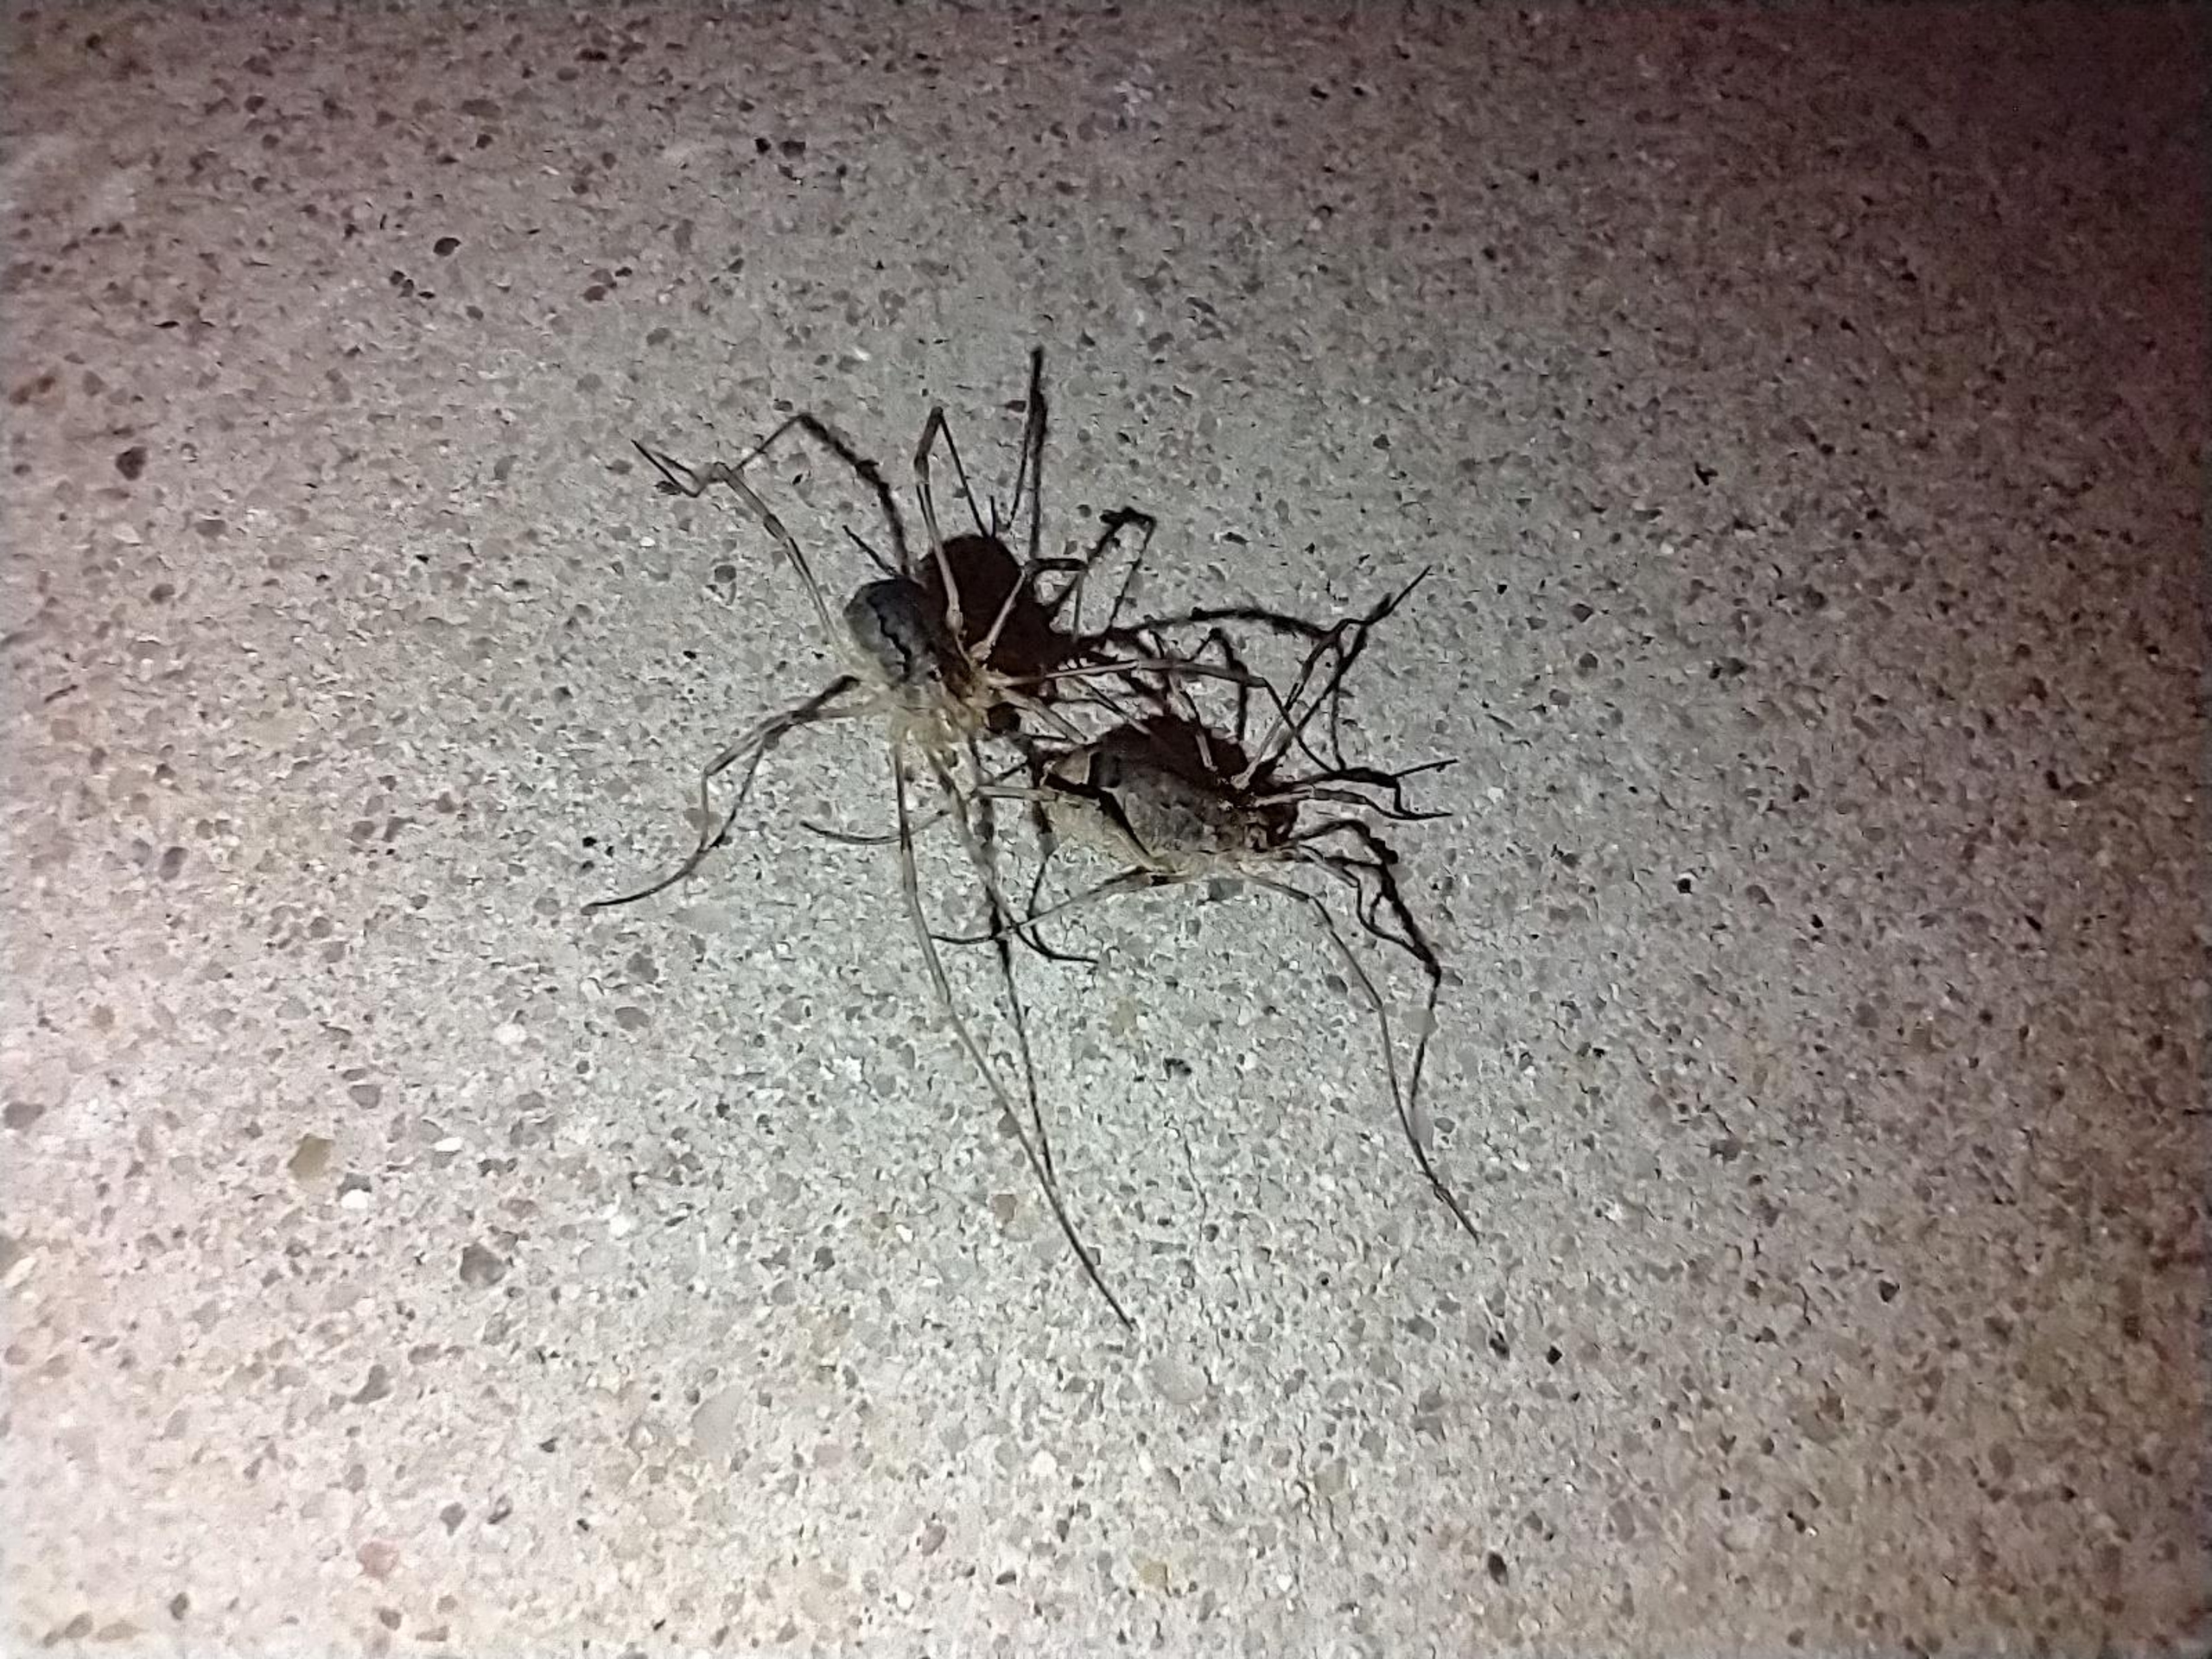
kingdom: Animalia
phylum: Arthropoda
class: Arachnida
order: Opiliones
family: Phalangiidae
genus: Odiellus
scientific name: Odiellus spinosus
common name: Kæmpemejer
